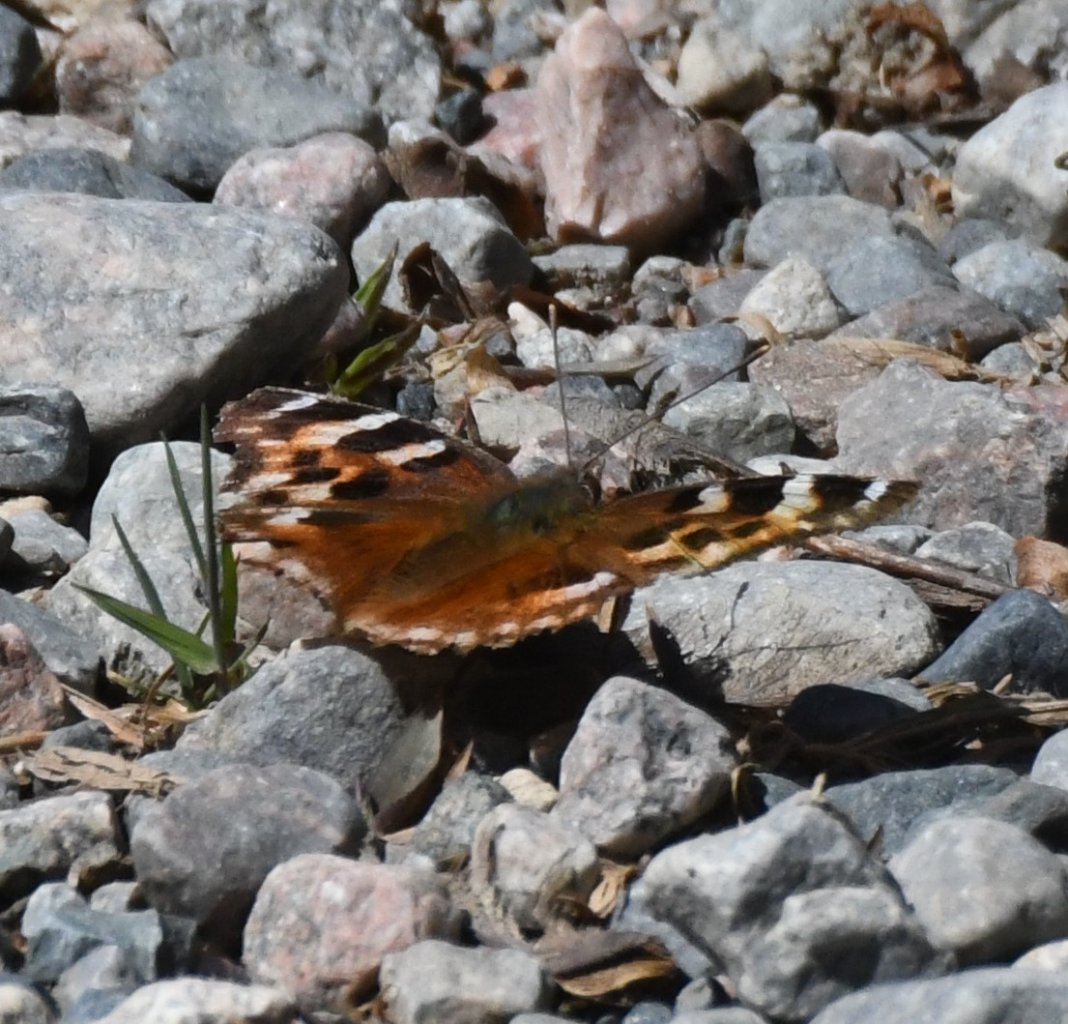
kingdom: Animalia
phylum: Arthropoda
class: Insecta
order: Lepidoptera
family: Nymphalidae
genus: Polygonia
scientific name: Polygonia vaualbum
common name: Compton Tortoiseshell
